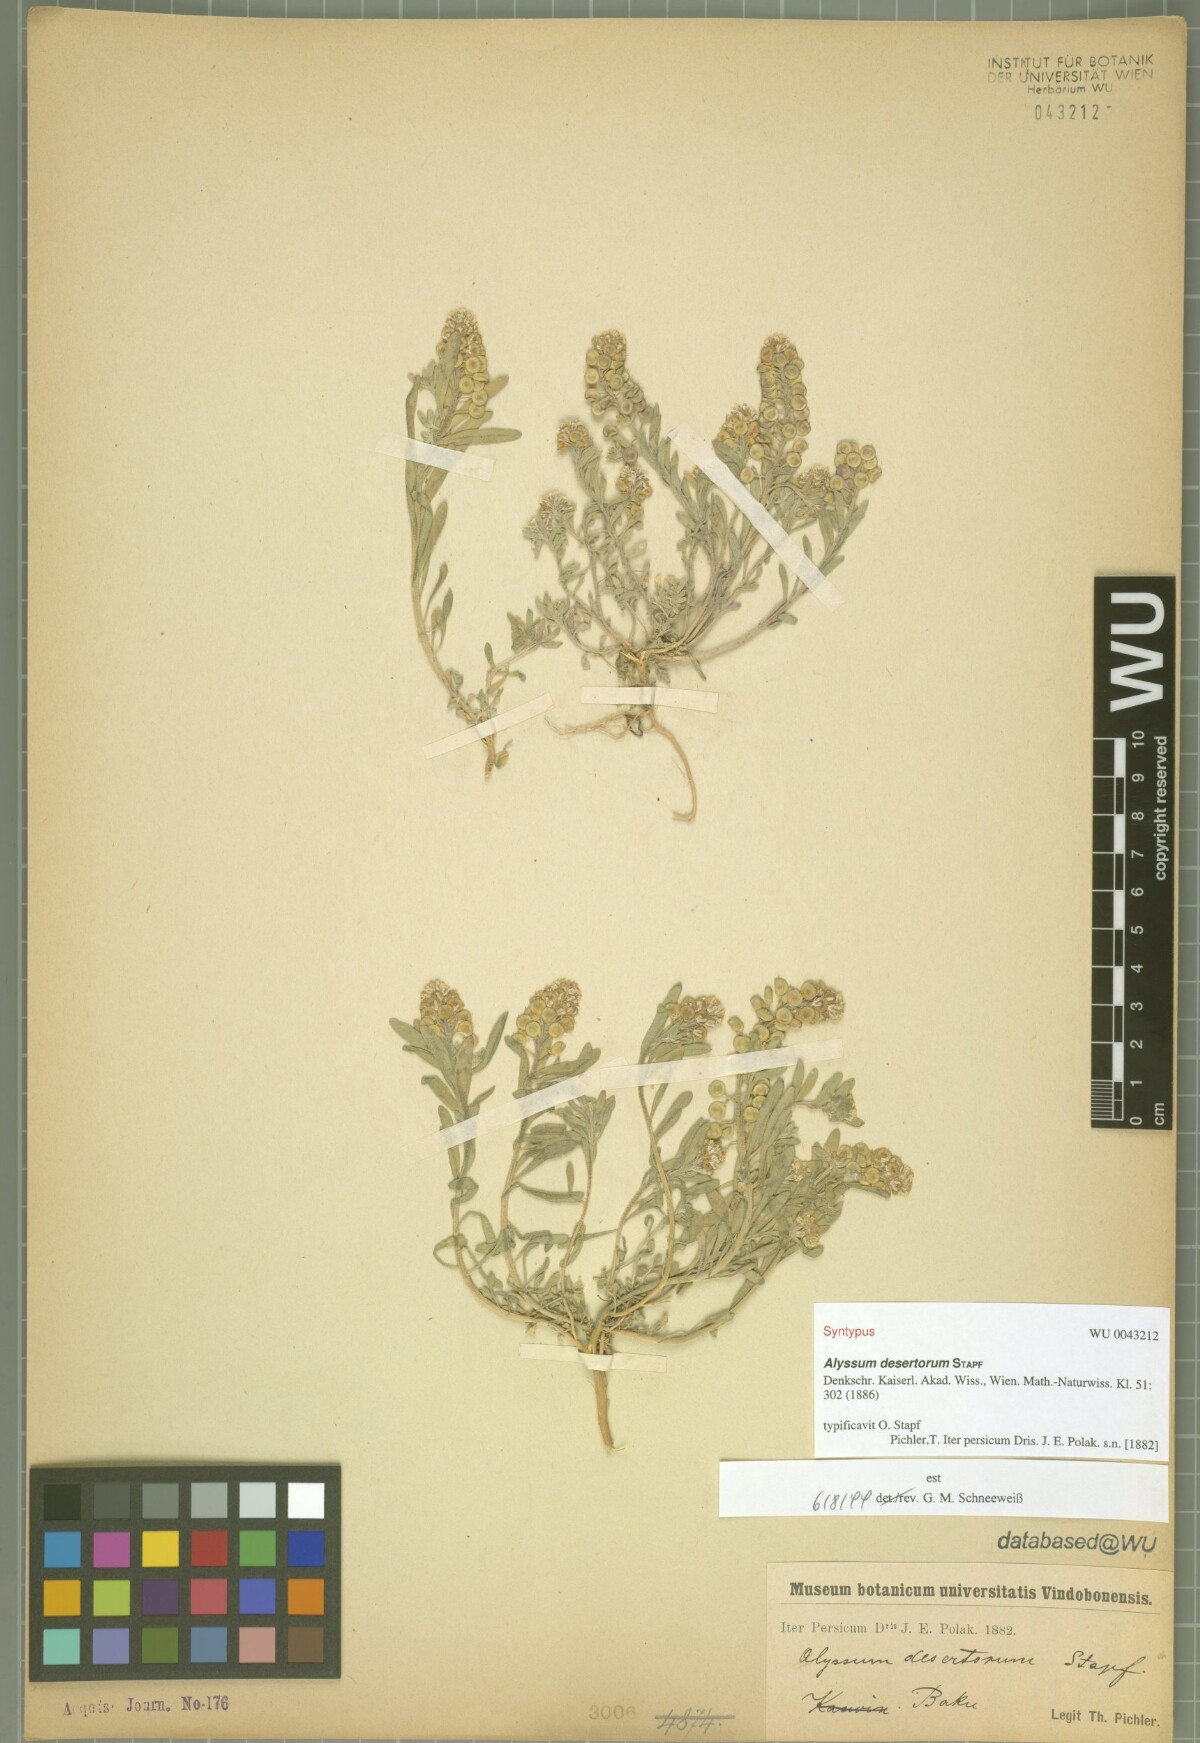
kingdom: Plantae
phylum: Tracheophyta
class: Magnoliopsida
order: Brassicales
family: Brassicaceae
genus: Alyssum
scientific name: Alyssum turkestanicum
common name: Desert alyssum
